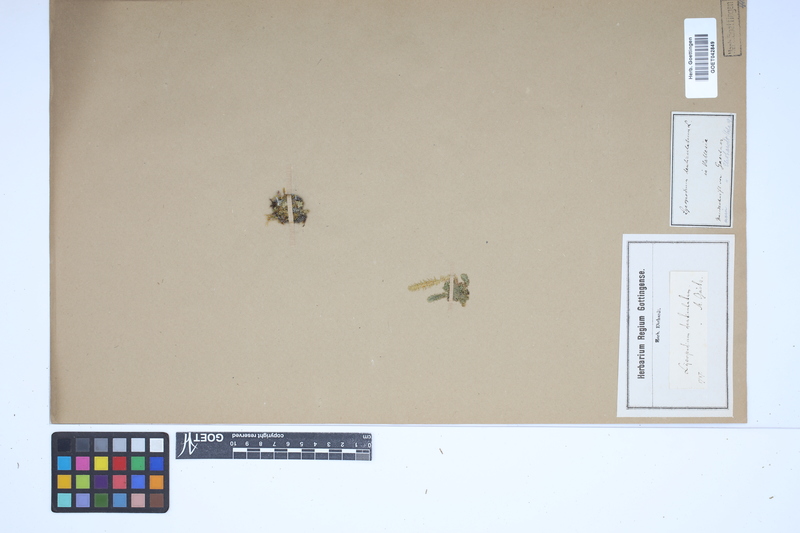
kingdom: Plantae
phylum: Tracheophyta
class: Lycopodiopsida
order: Selaginellales
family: Selaginellaceae
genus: Selaginella
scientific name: Selaginella selaginoides
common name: Prickly mountain-moss
